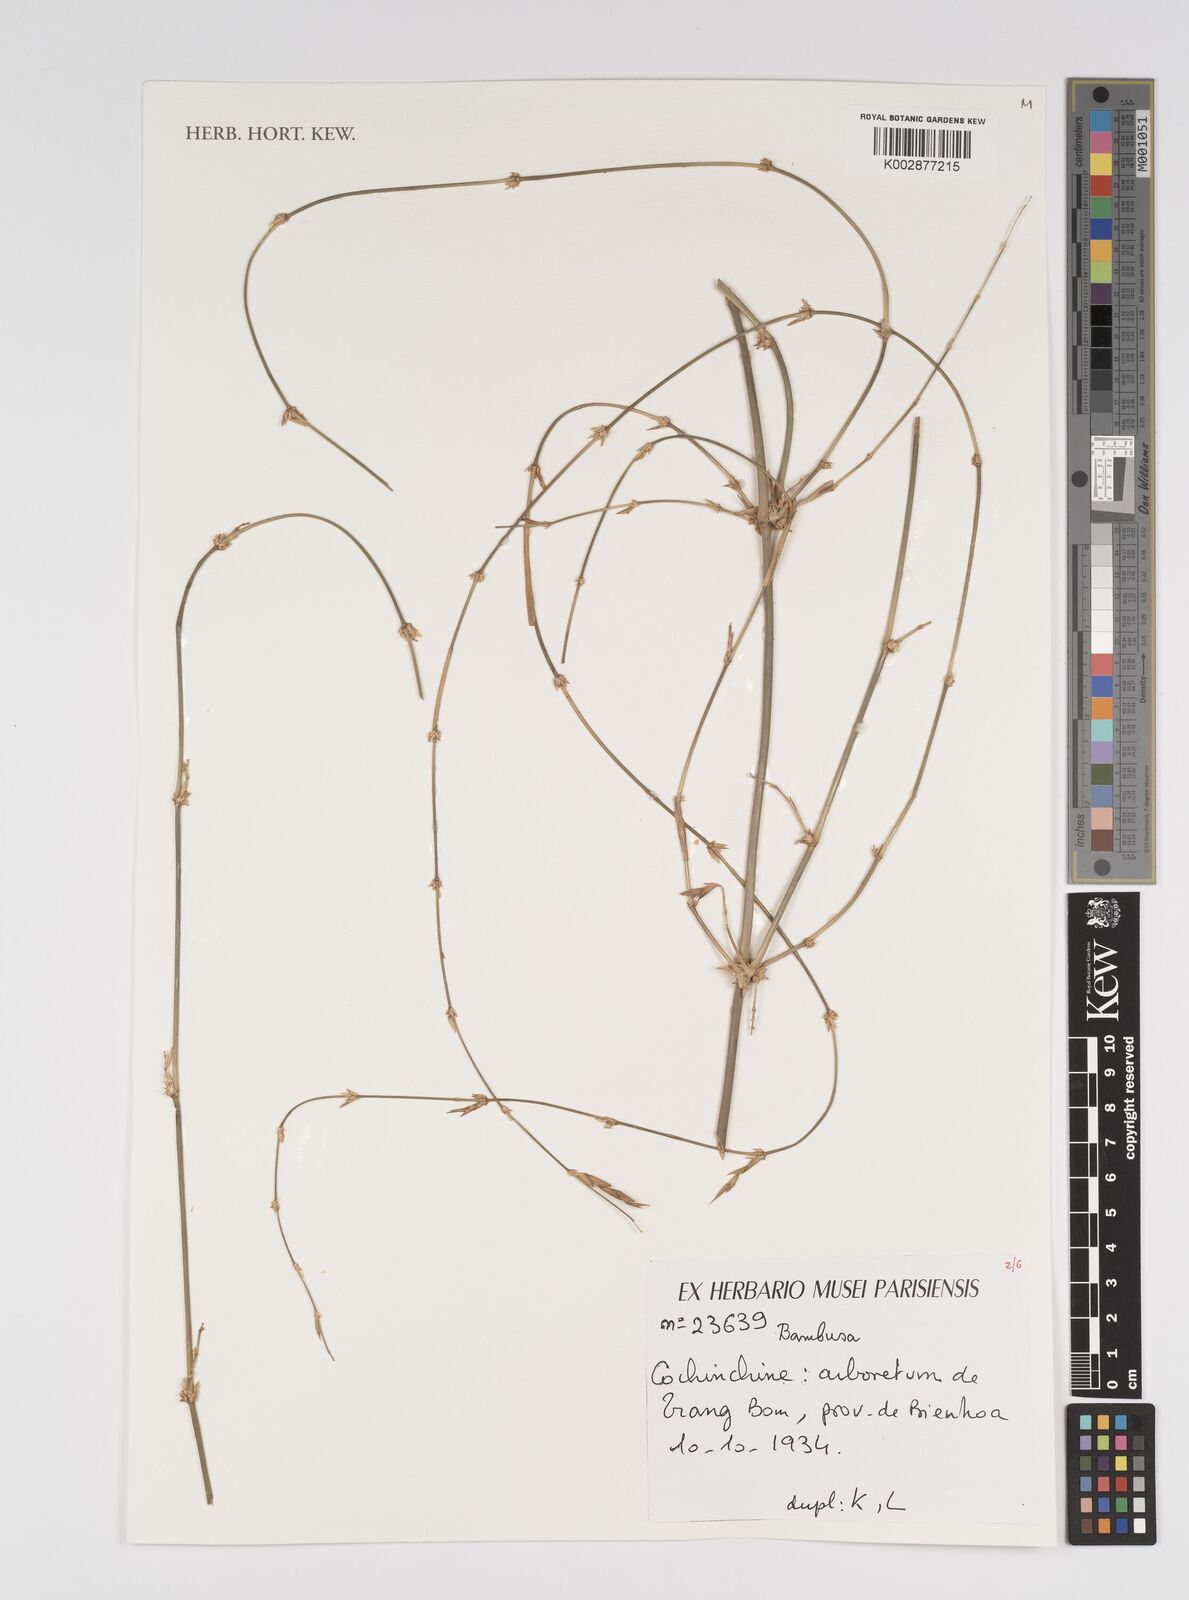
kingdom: Plantae
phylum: Tracheophyta
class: Liliopsida
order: Poales
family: Poaceae
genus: Bambusa
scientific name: Bambusa
